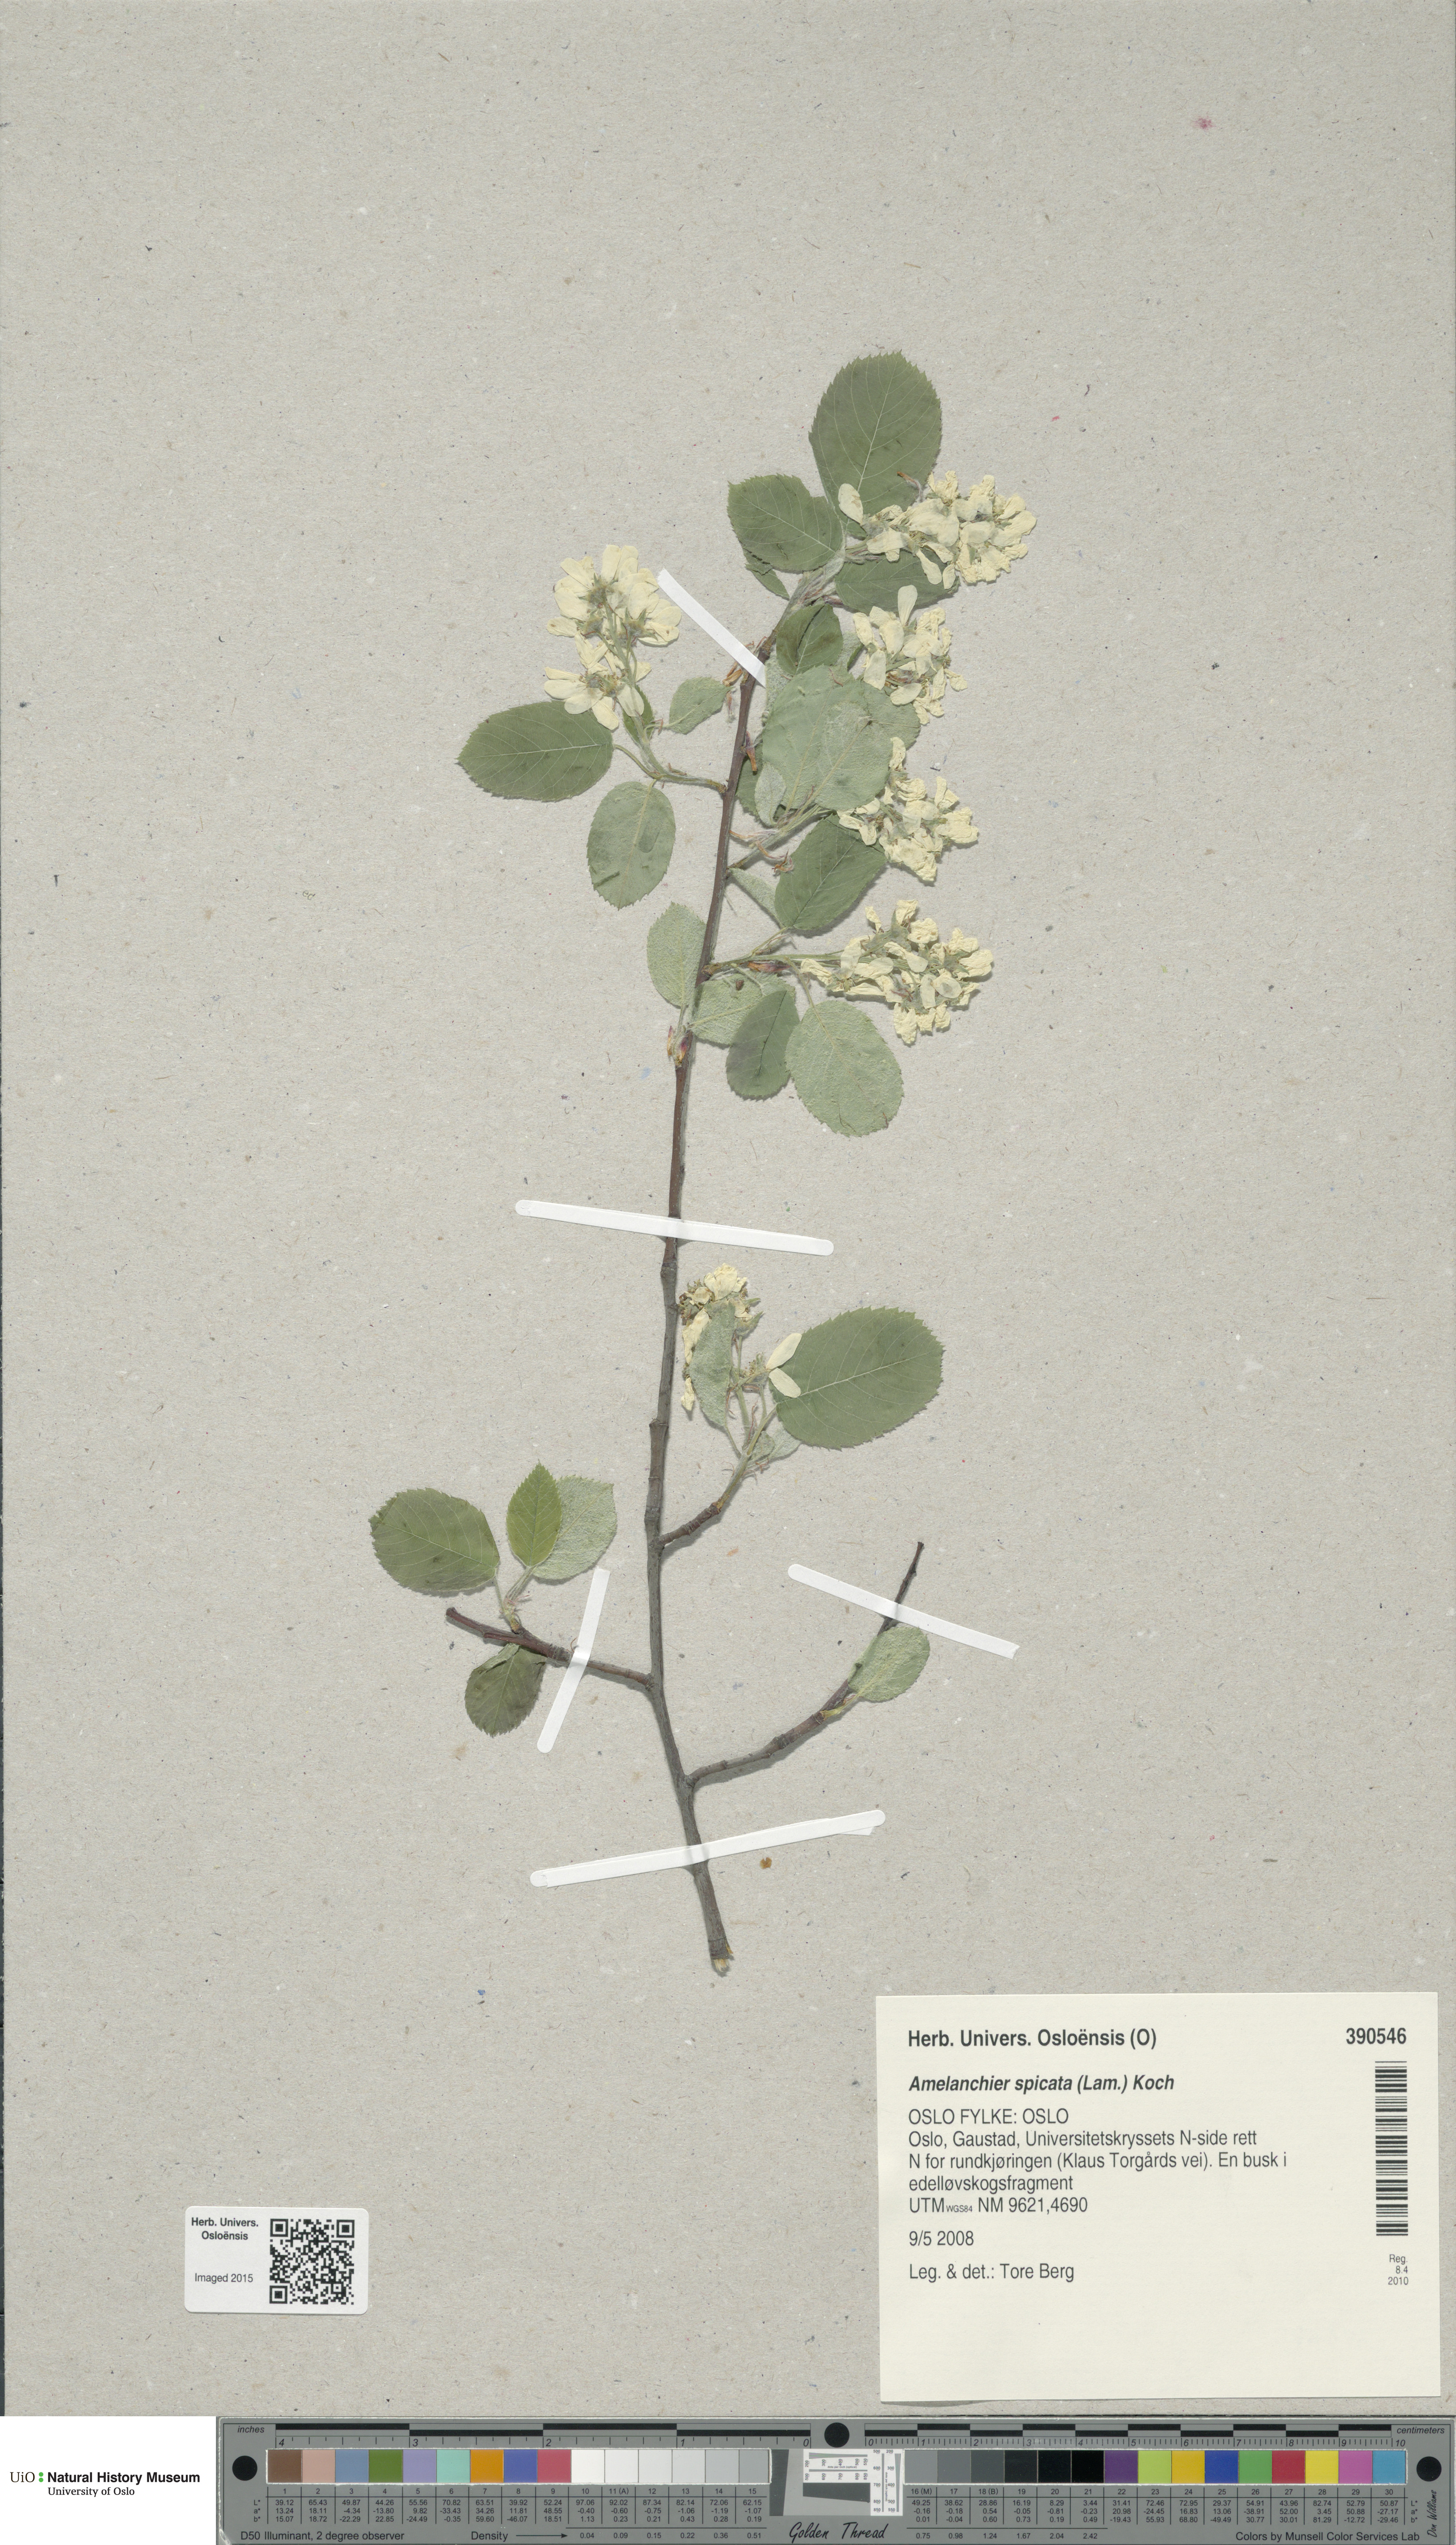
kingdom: Plantae
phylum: Tracheophyta
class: Magnoliopsida
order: Rosales
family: Rosaceae
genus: Amelanchier
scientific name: Amelanchier humilis
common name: Low juneberry
